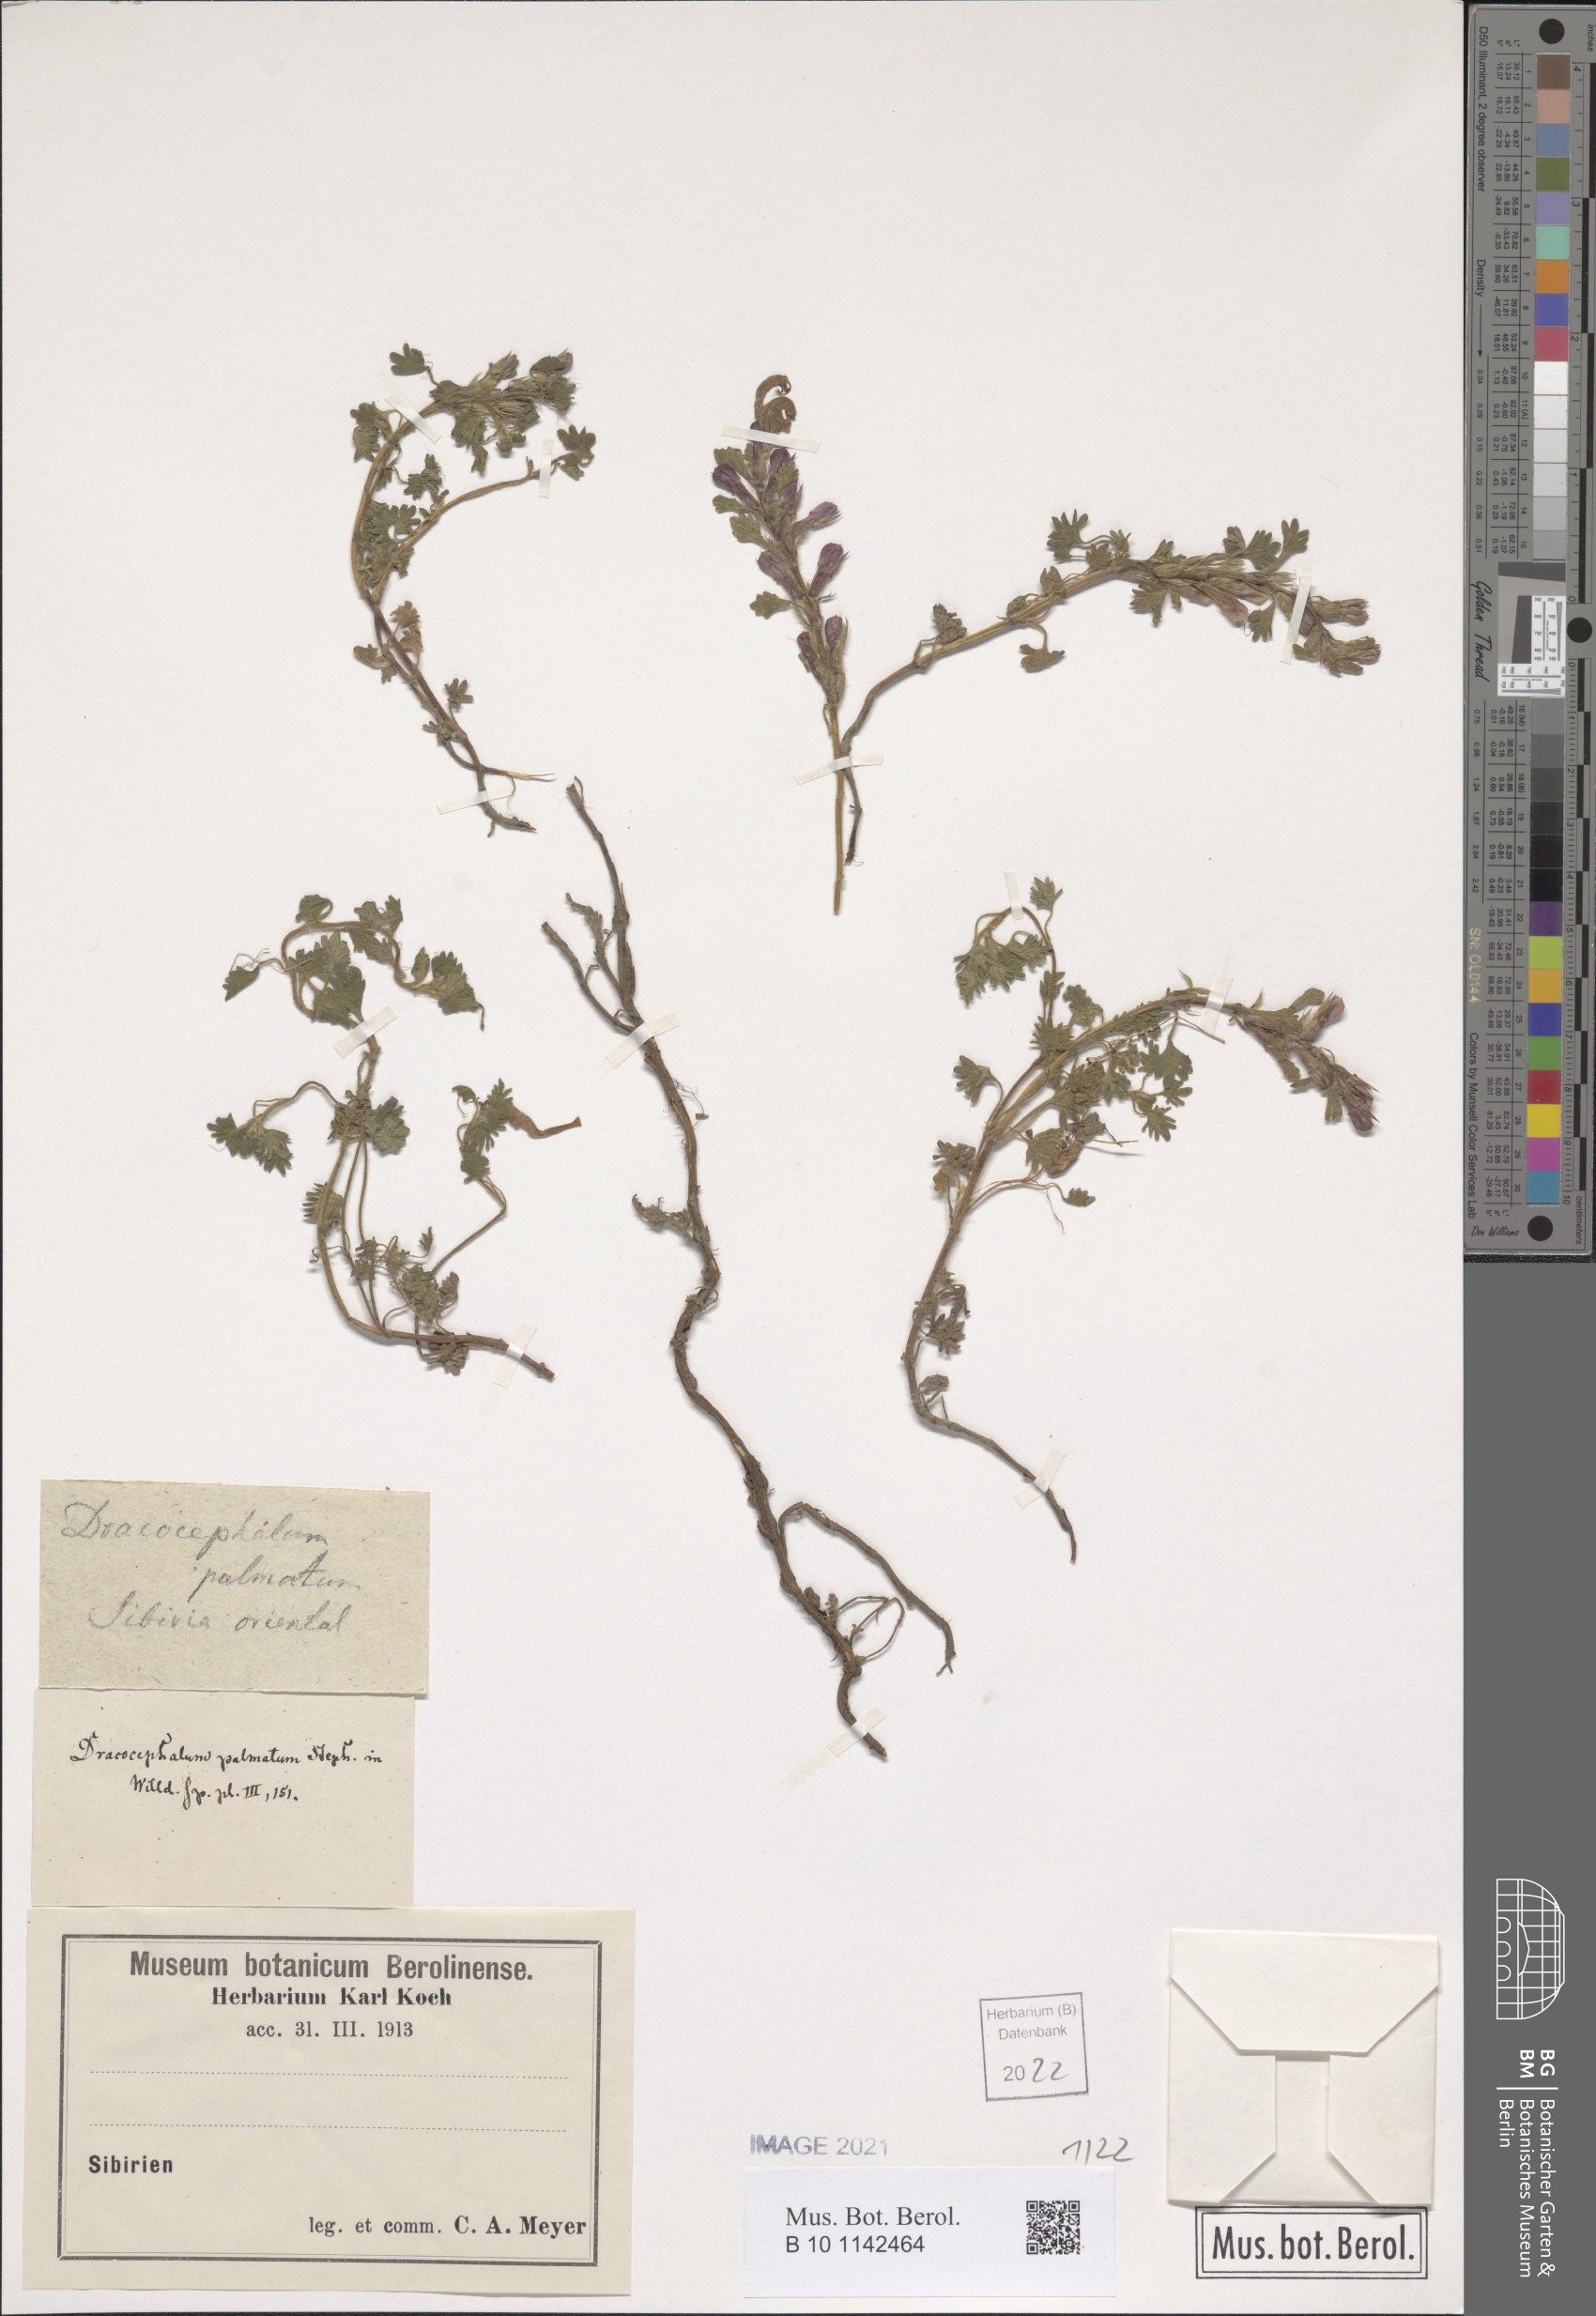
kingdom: Plantae
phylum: Tracheophyta
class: Magnoliopsida
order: Lamiales
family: Lamiaceae
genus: Dracocephalum
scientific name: Dracocephalum palmatum
